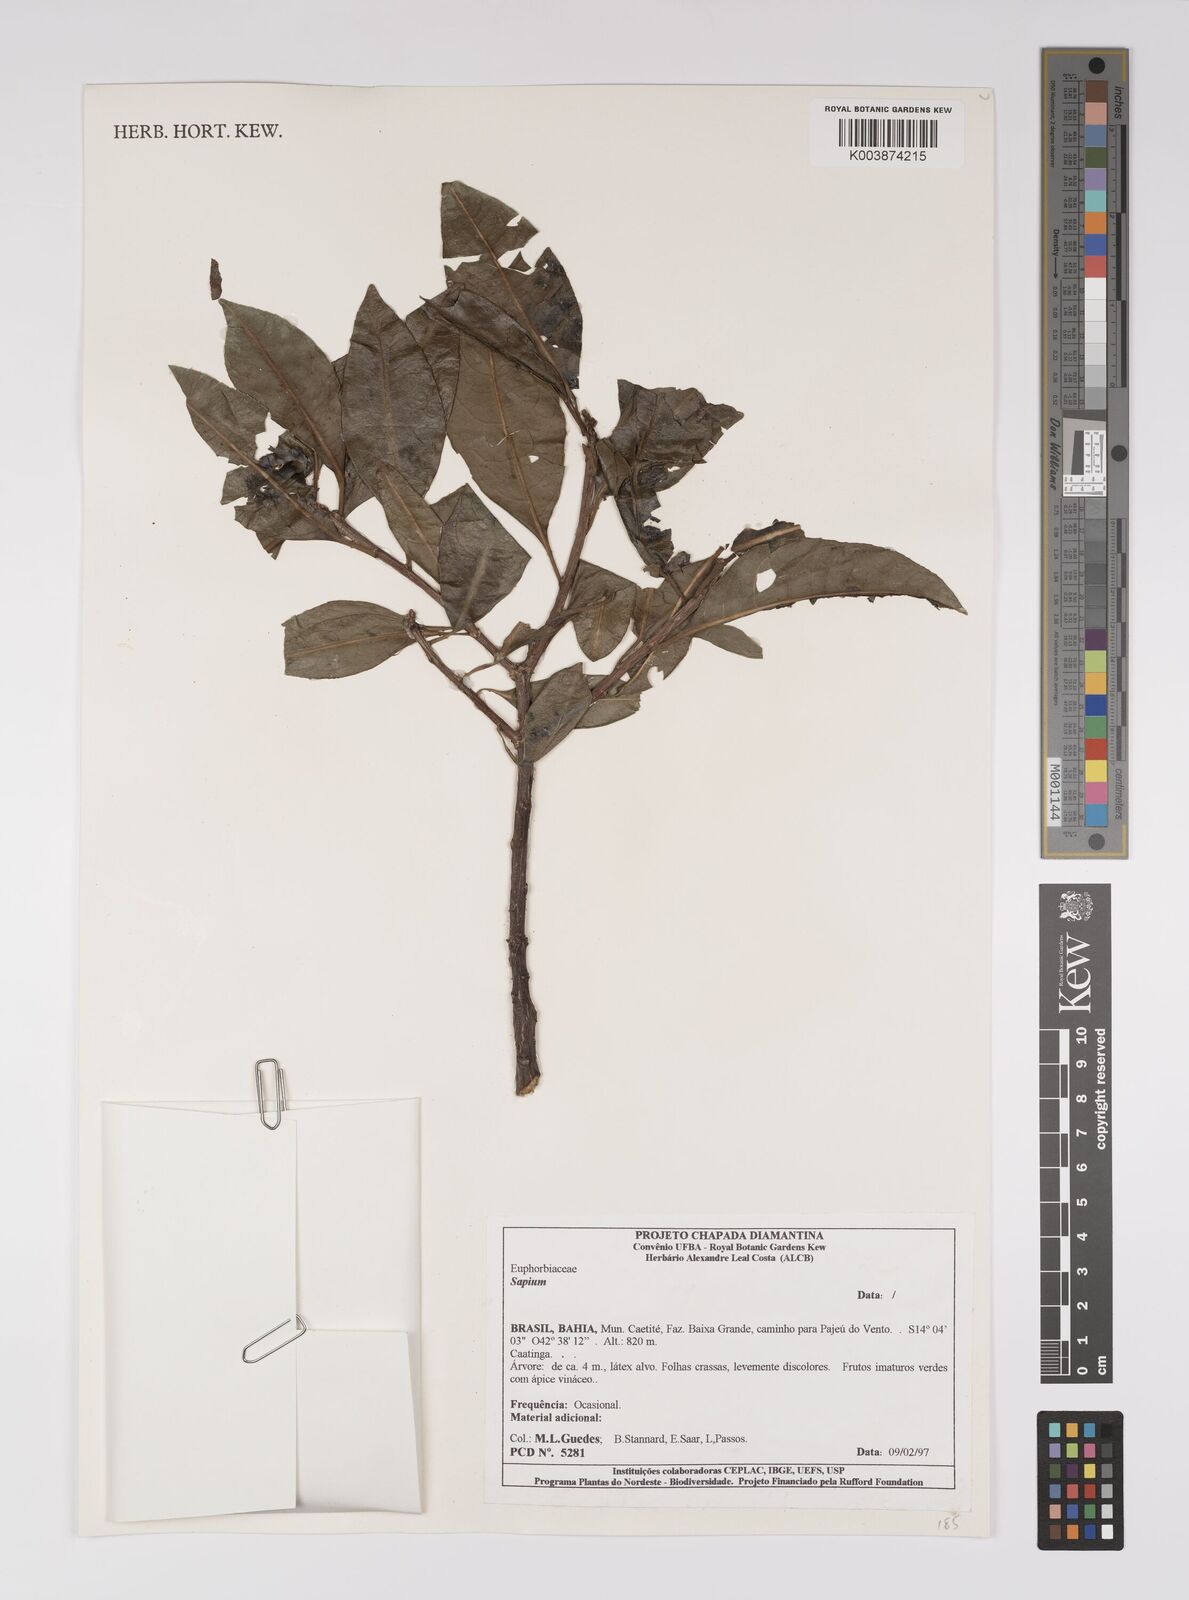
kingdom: Plantae
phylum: Tracheophyta
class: Magnoliopsida
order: Malpighiales
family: Euphorbiaceae
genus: Sapium
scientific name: Sapium
